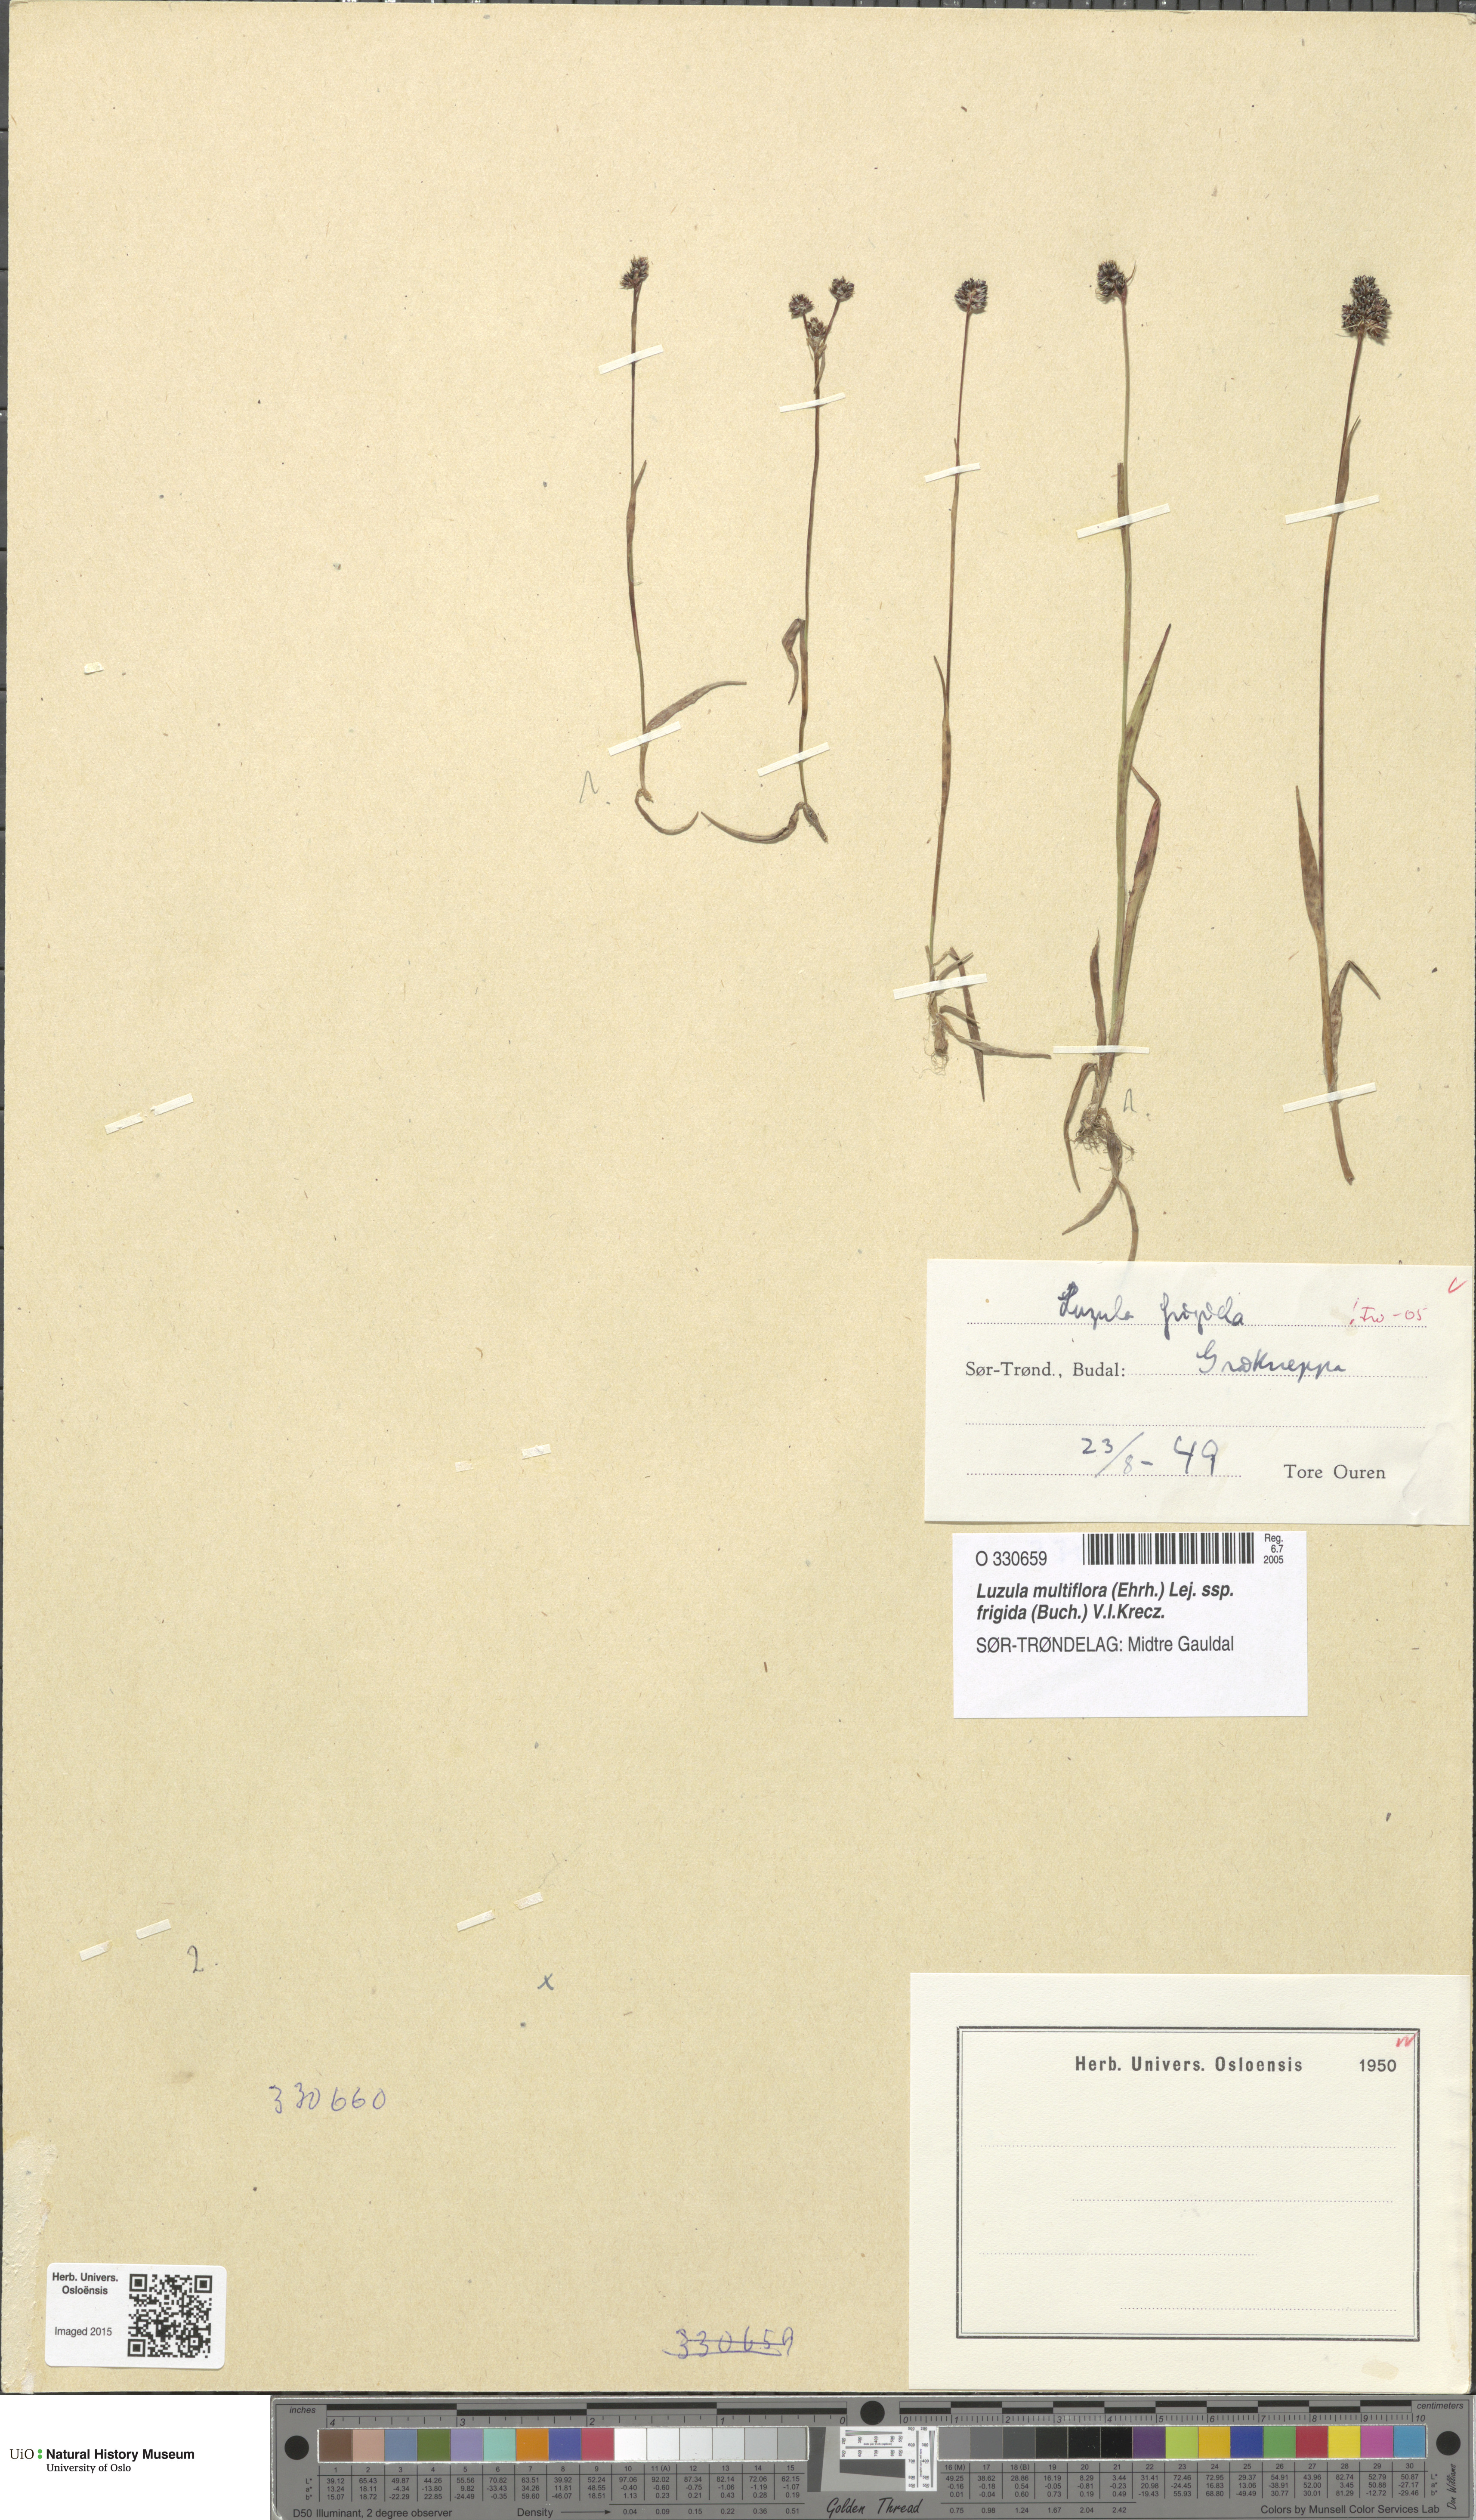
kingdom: Plantae
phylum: Tracheophyta
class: Liliopsida
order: Poales
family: Juncaceae
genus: Luzula
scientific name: Luzula multiflora
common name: Heath wood-rush
